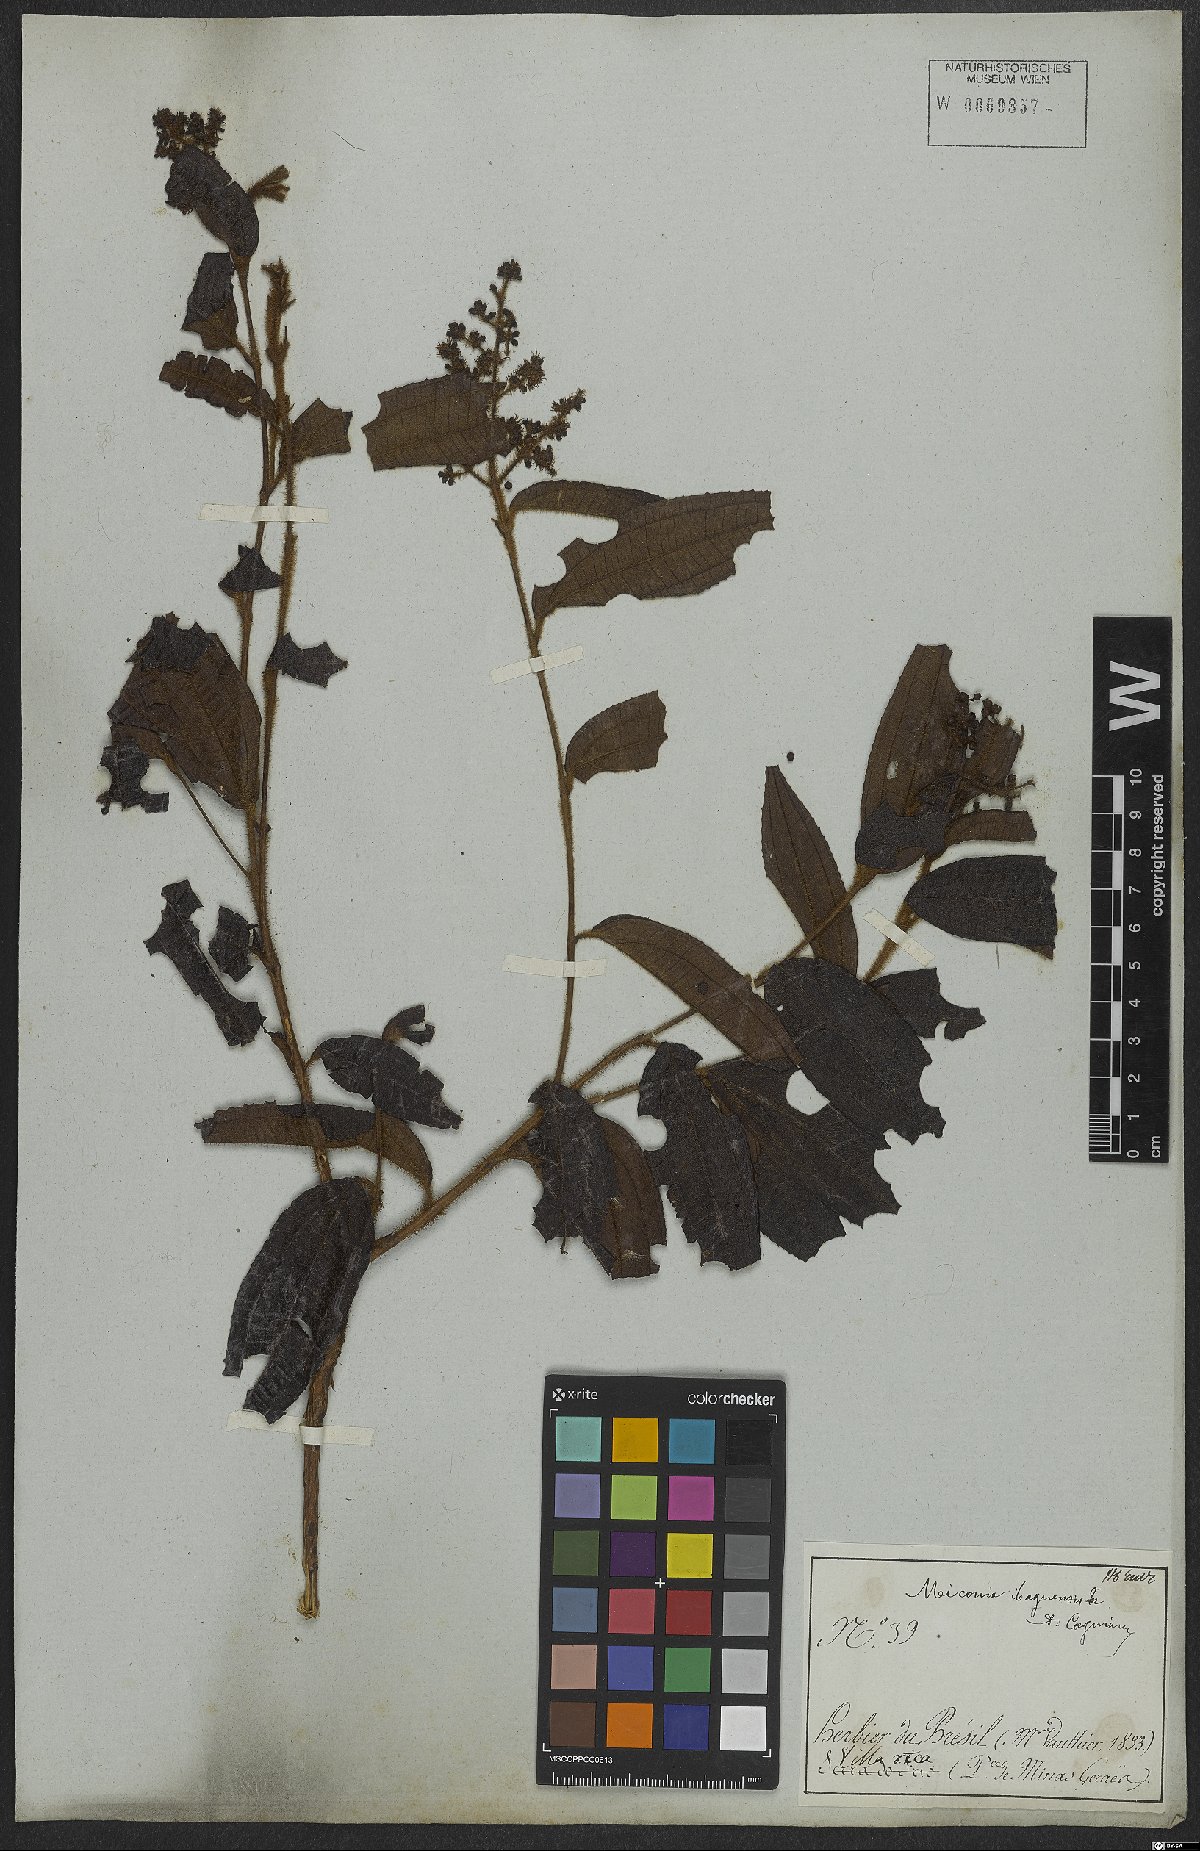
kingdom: Plantae
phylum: Tracheophyta
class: Magnoliopsida
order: Myrtales
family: Melastomataceae
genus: Miconia
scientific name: Miconia ibaguensis
